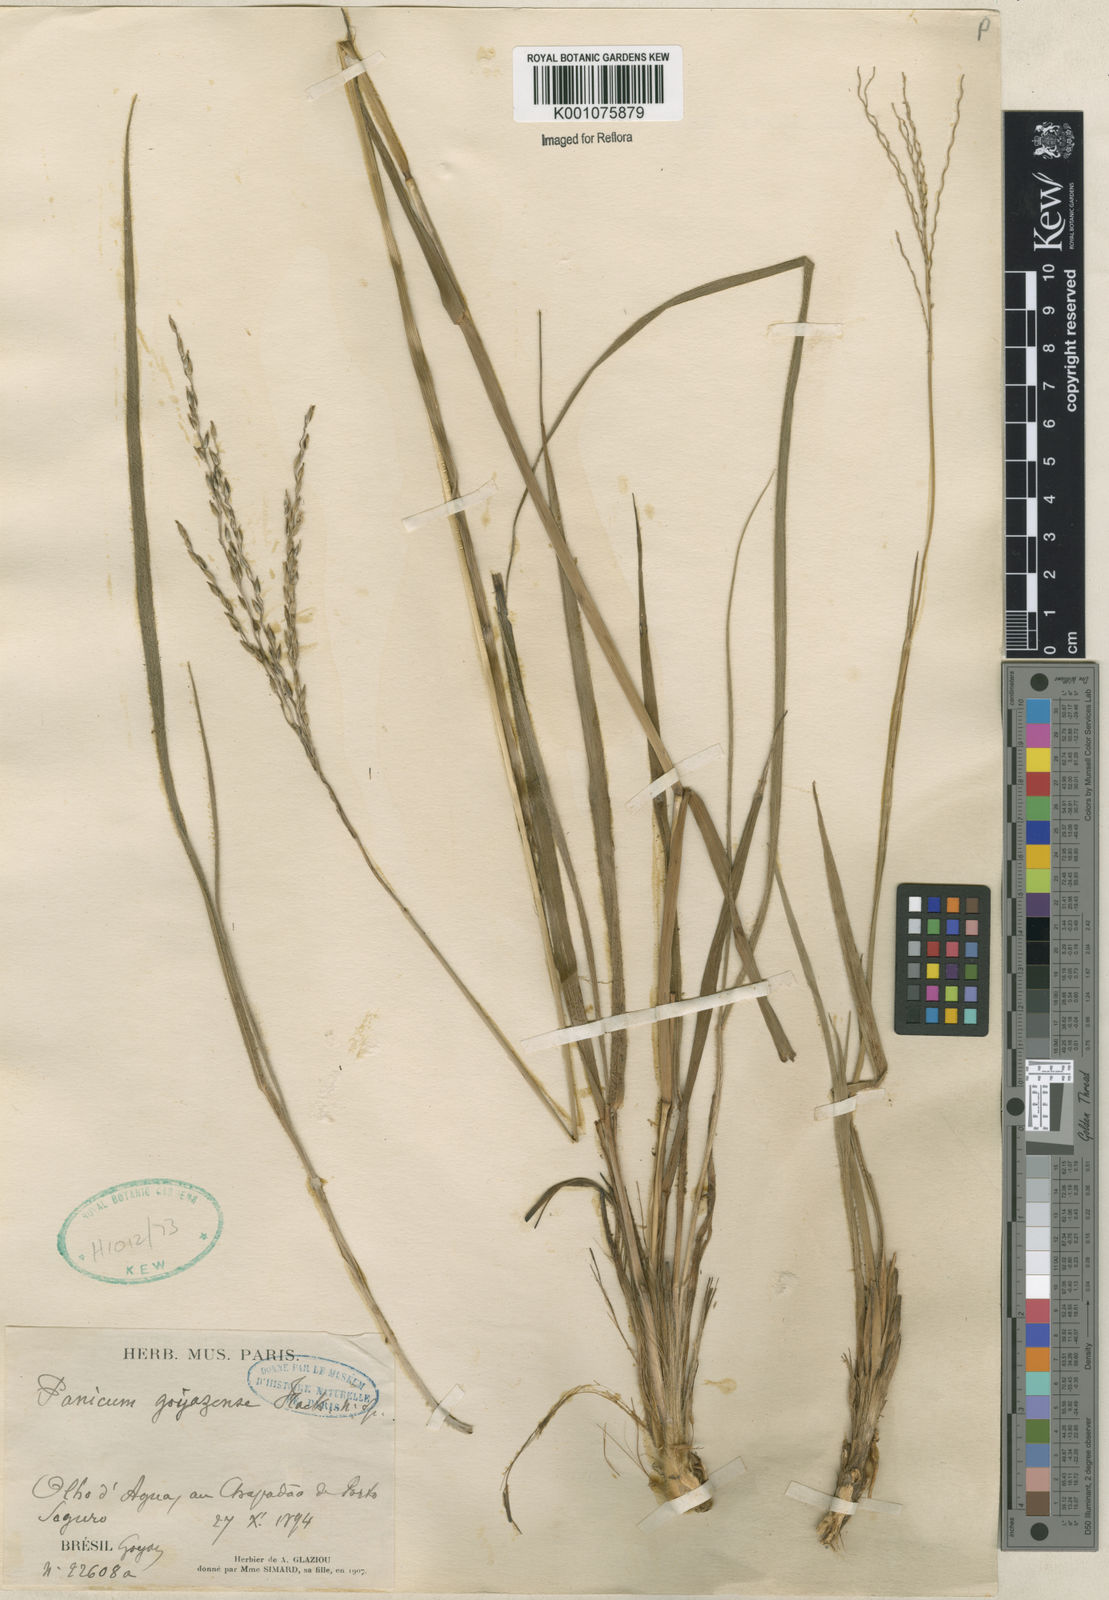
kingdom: Plantae
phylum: Tracheophyta
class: Liliopsida
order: Poales
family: Poaceae
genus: Digitaria
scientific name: Digitaria neesiana
